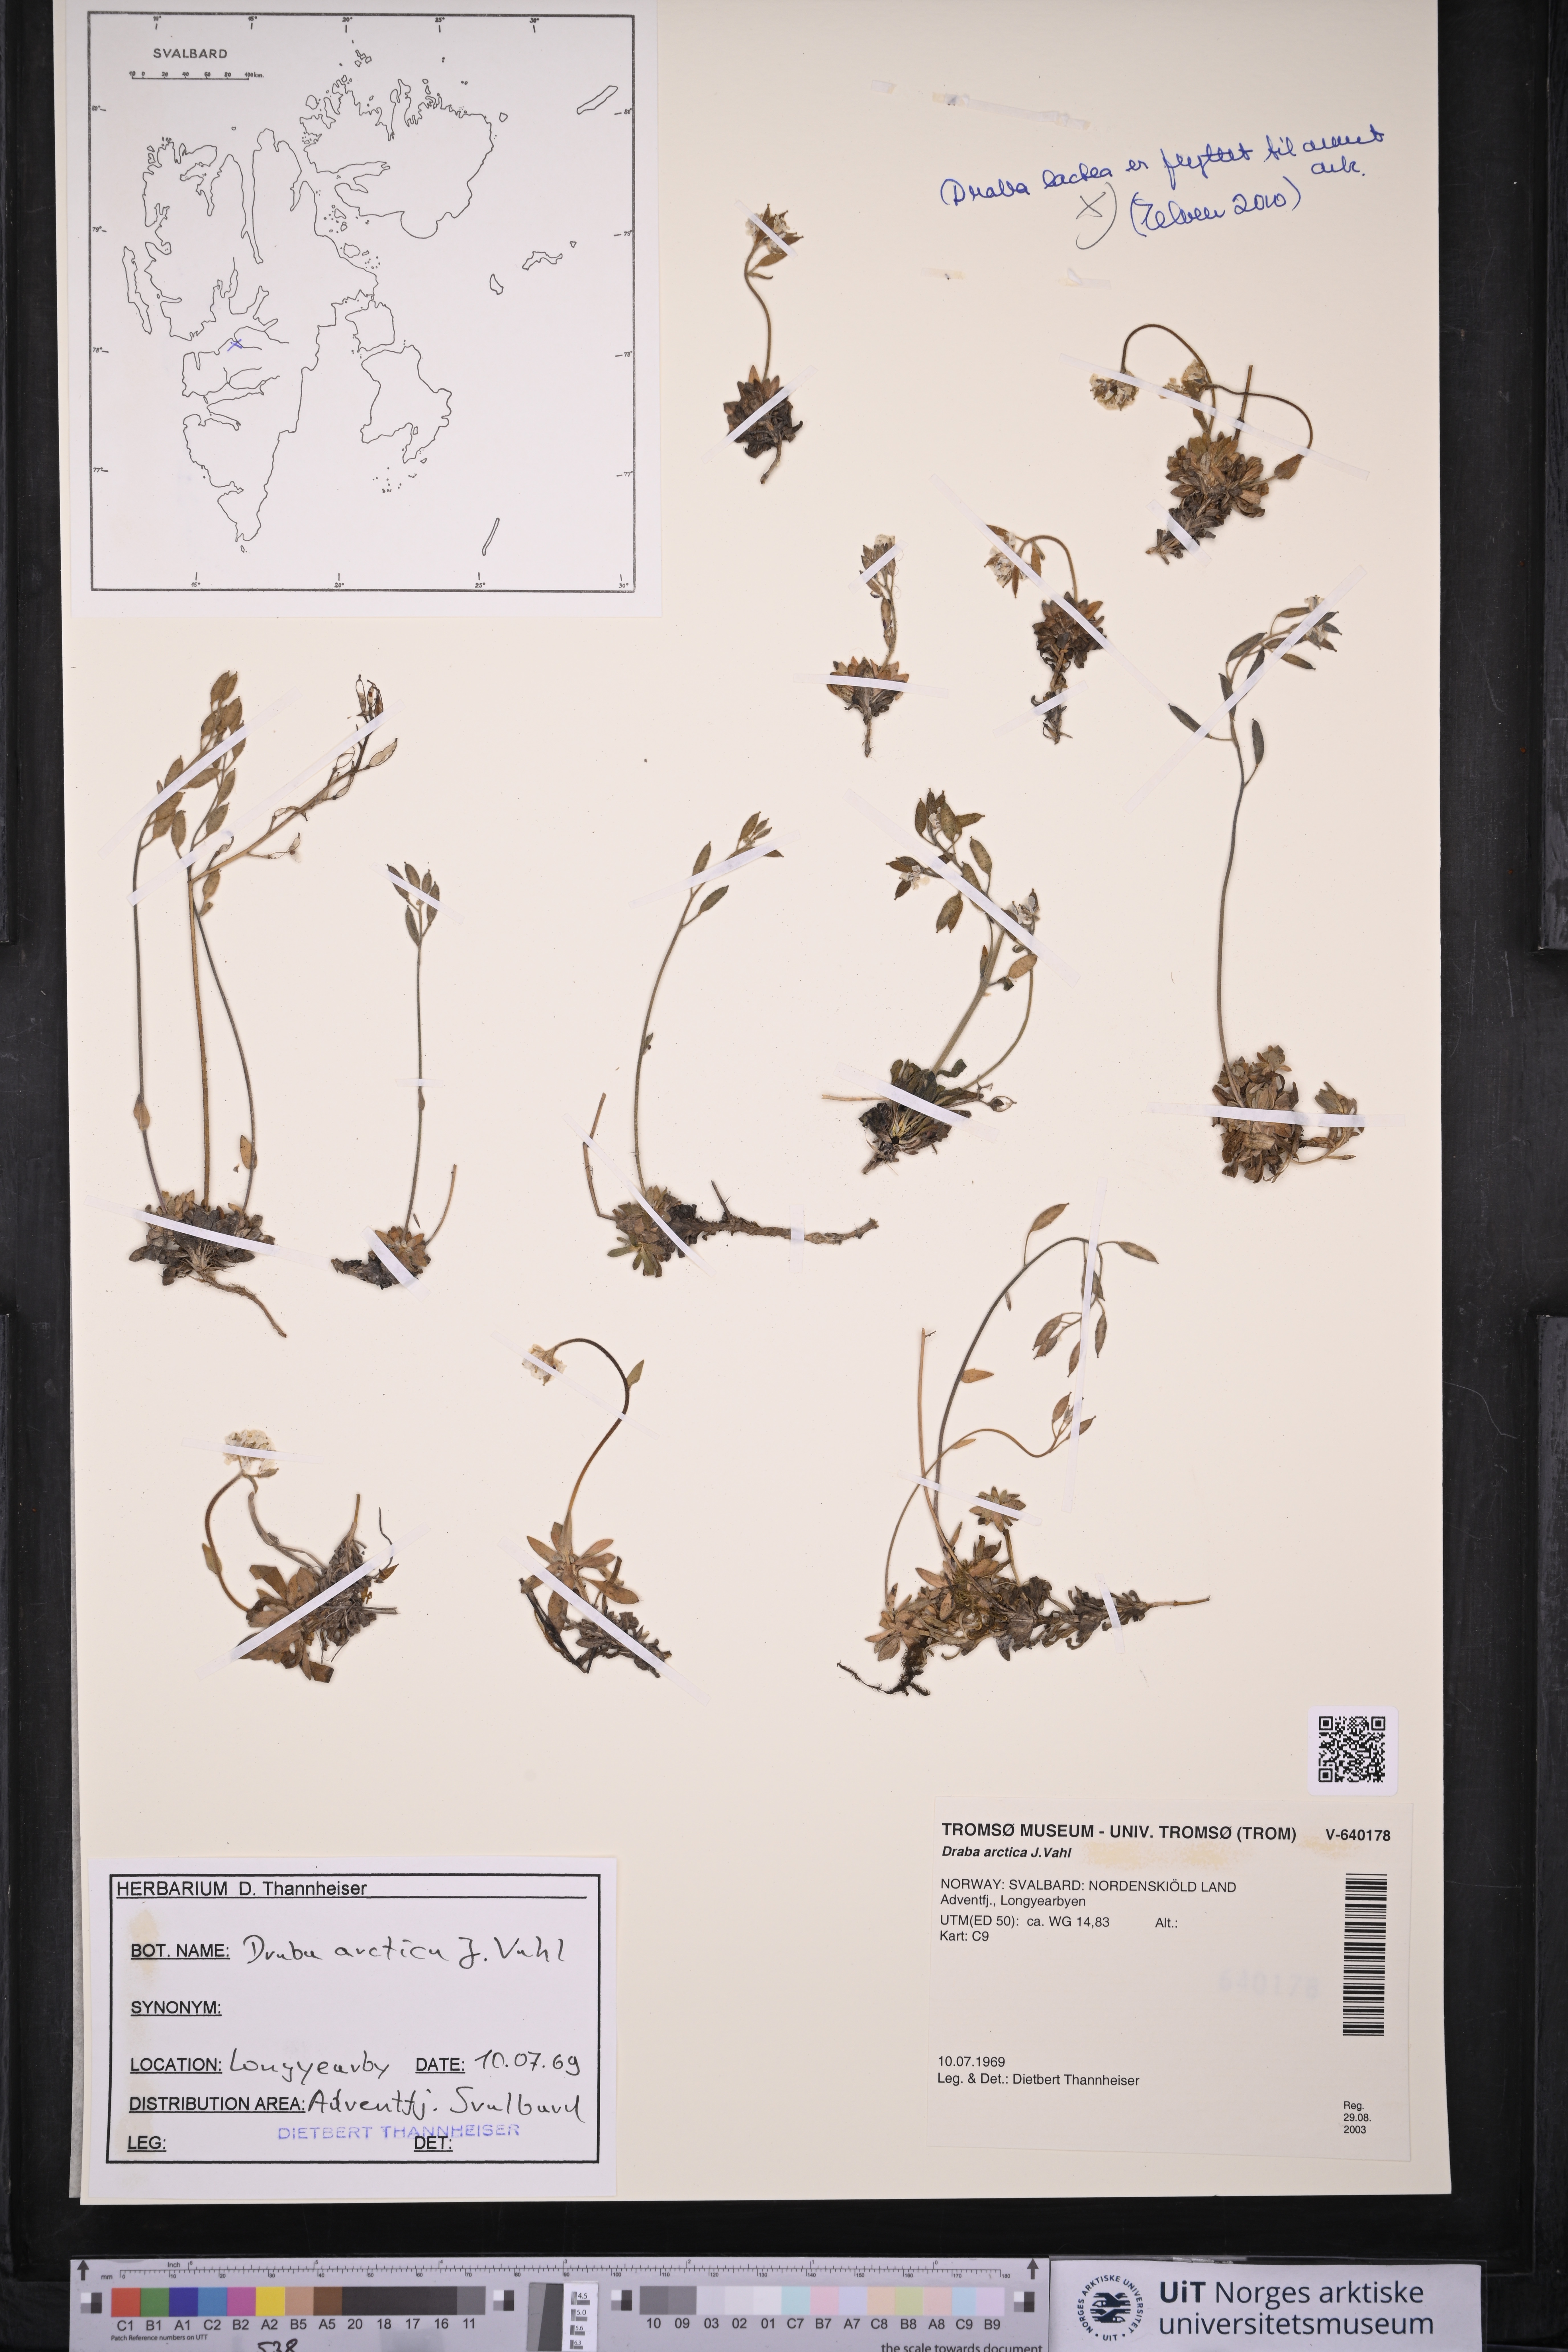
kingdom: Plantae
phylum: Tracheophyta
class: Magnoliopsida
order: Brassicales
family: Brassicaceae
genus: Draba
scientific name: Draba arctica
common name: Arctic draba
